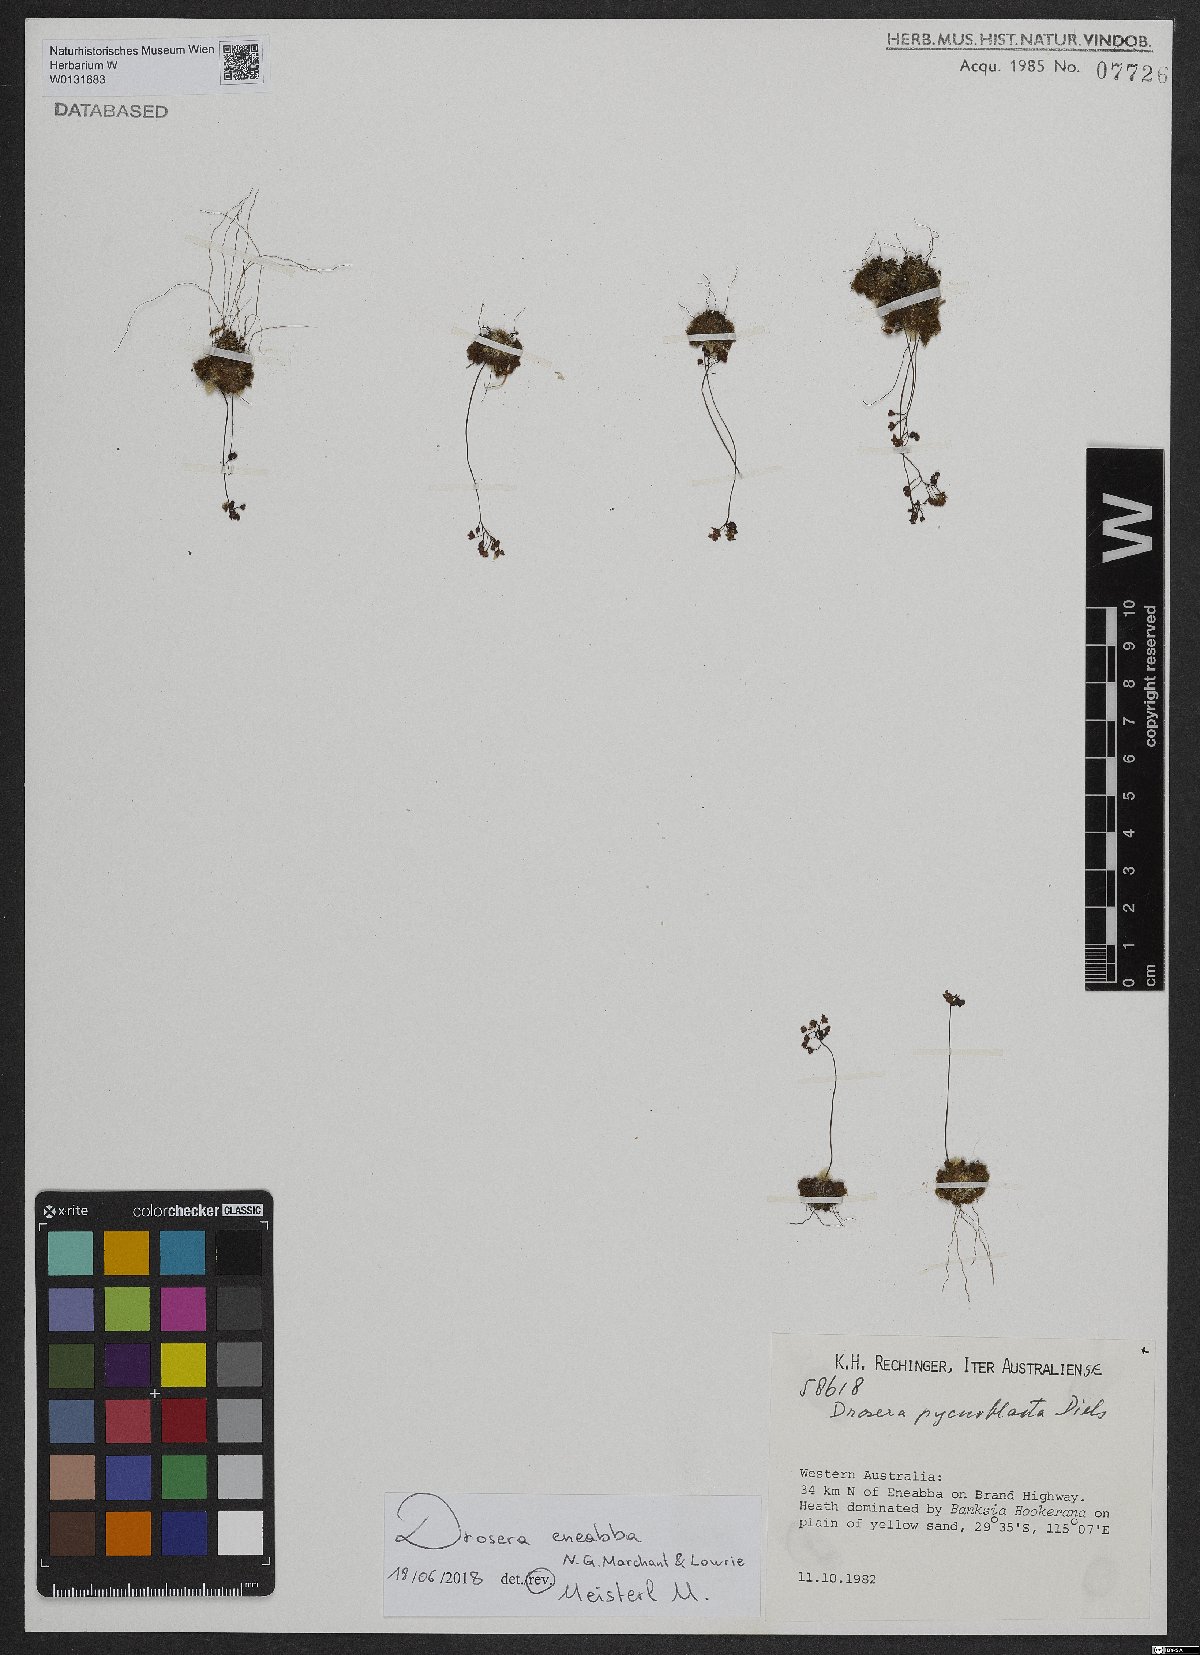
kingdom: Plantae
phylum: Tracheophyta
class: Magnoliopsida
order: Caryophyllales
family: Droseraceae
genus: Drosera
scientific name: Drosera eneabba
